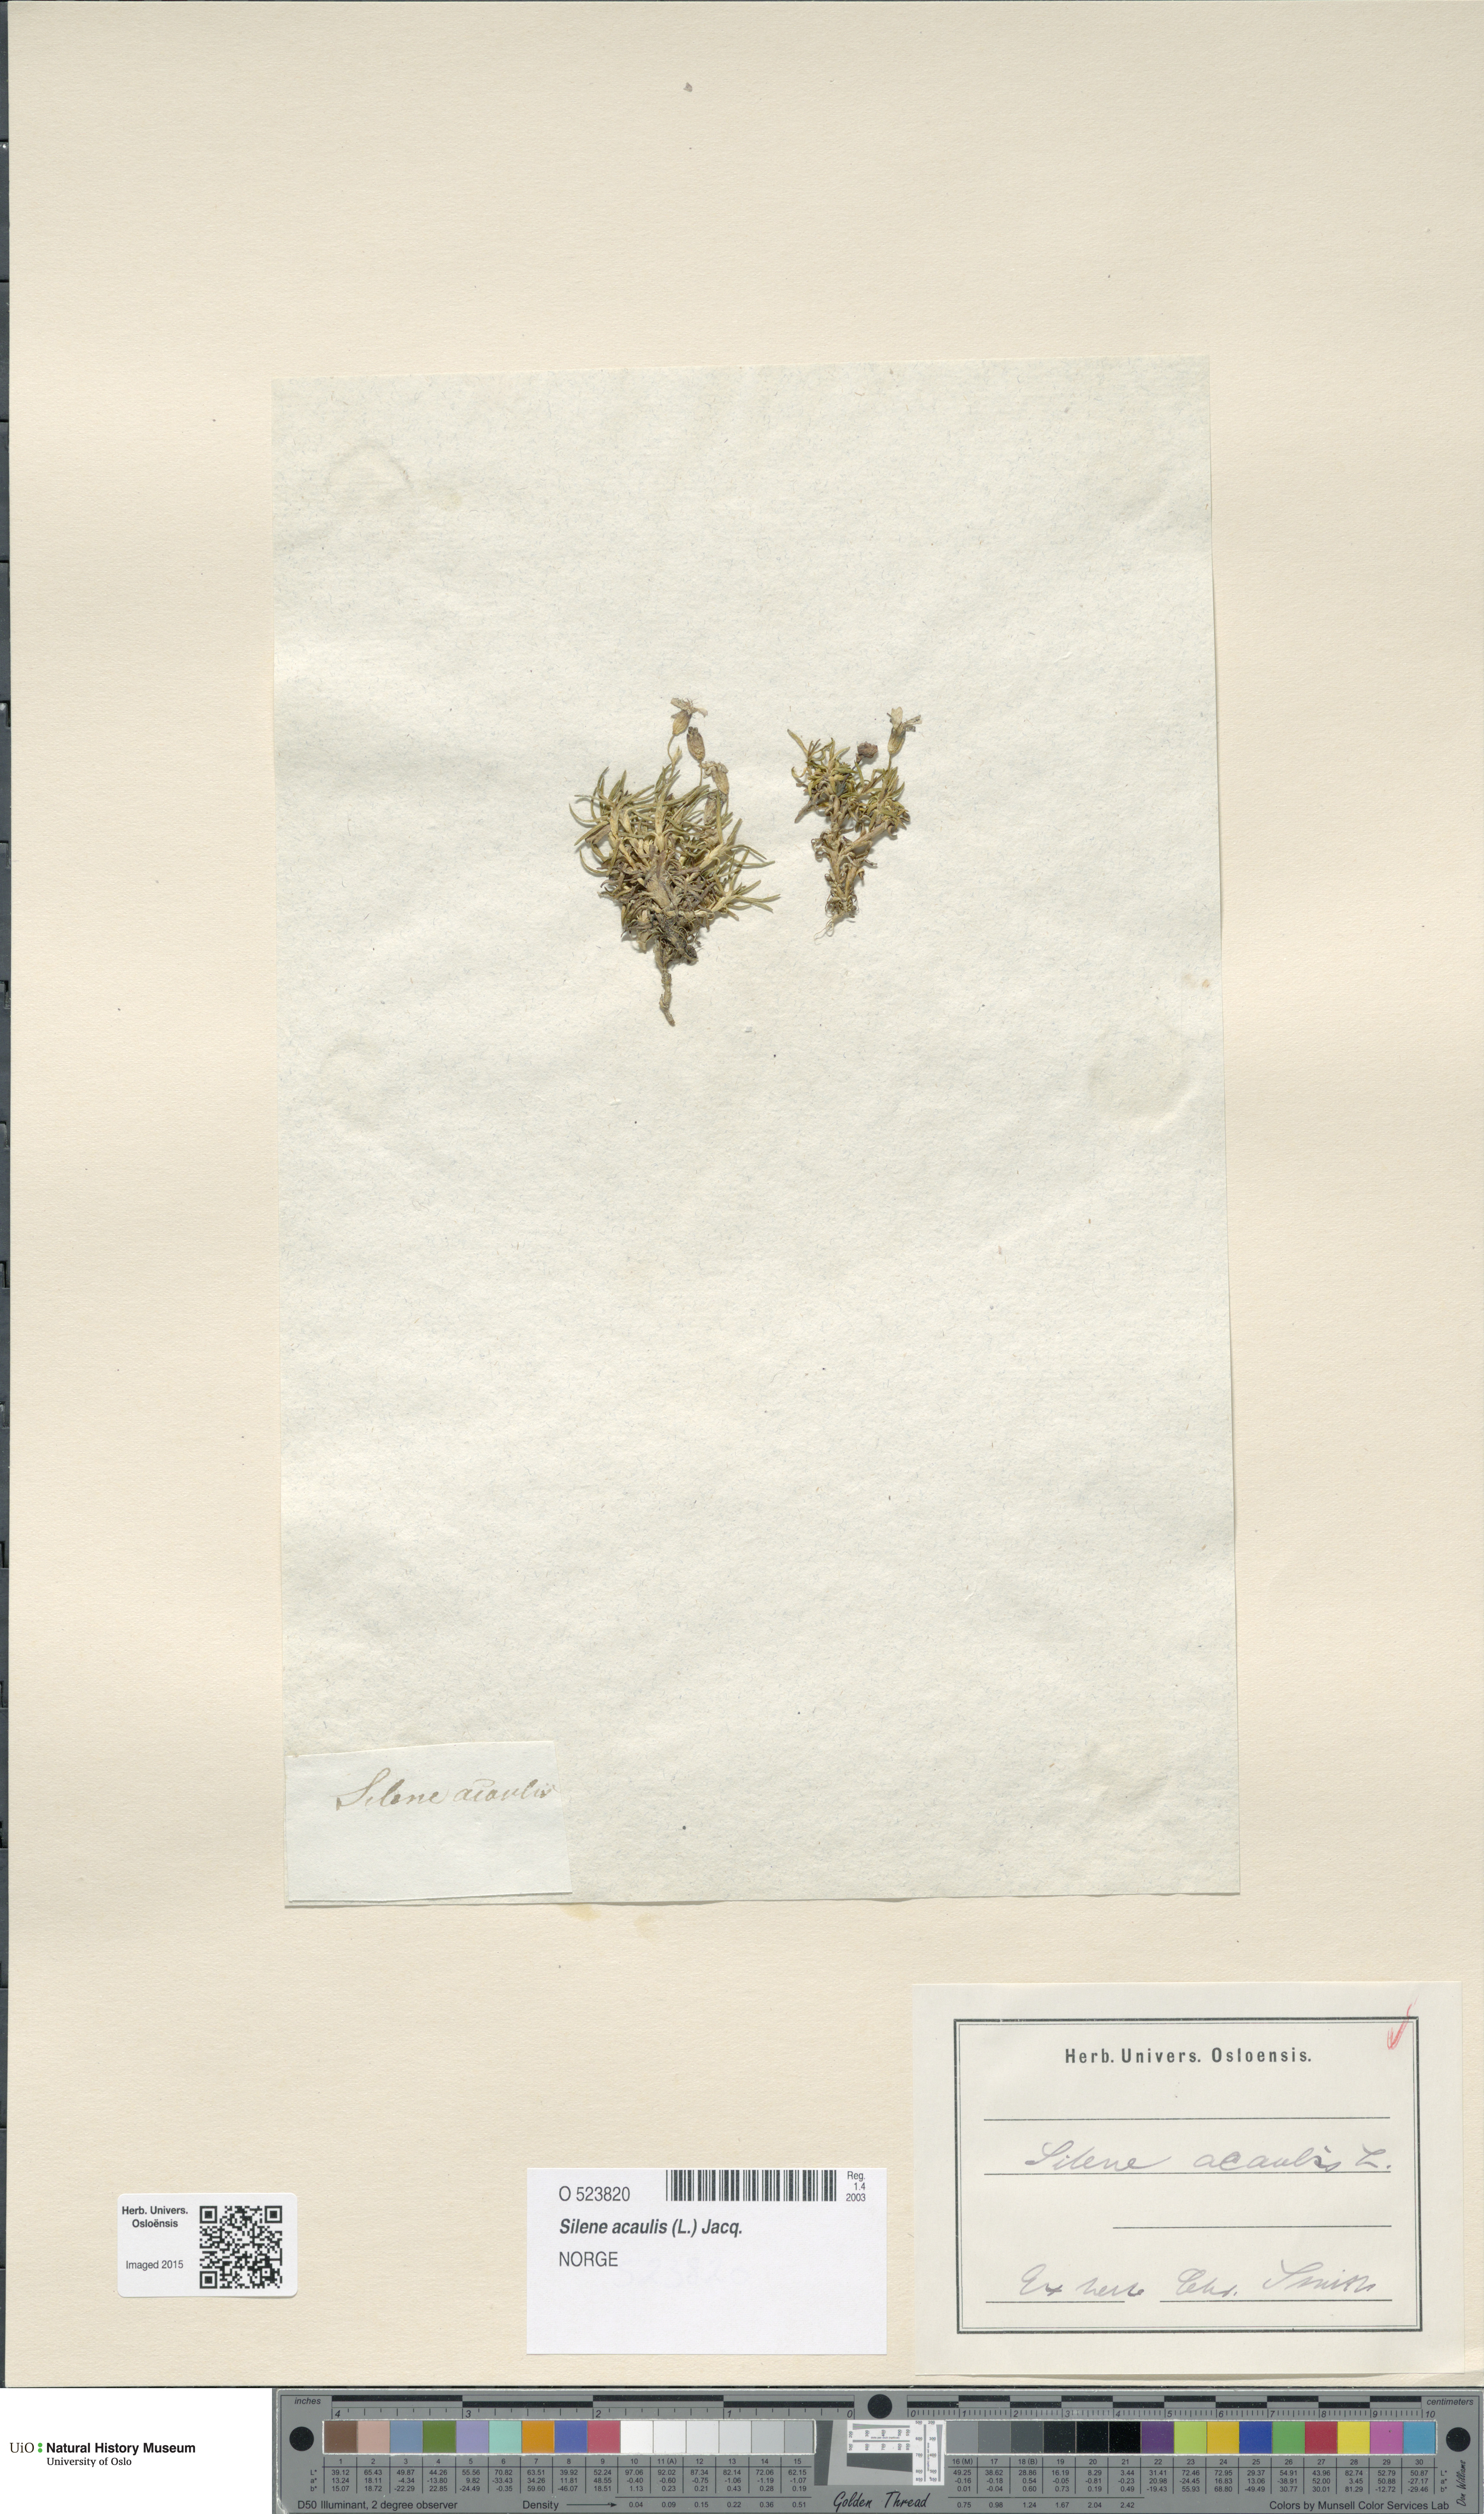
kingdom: Plantae
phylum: Tracheophyta
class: Magnoliopsida
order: Caryophyllales
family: Caryophyllaceae
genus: Silene
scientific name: Silene acaulis
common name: Moss campion
